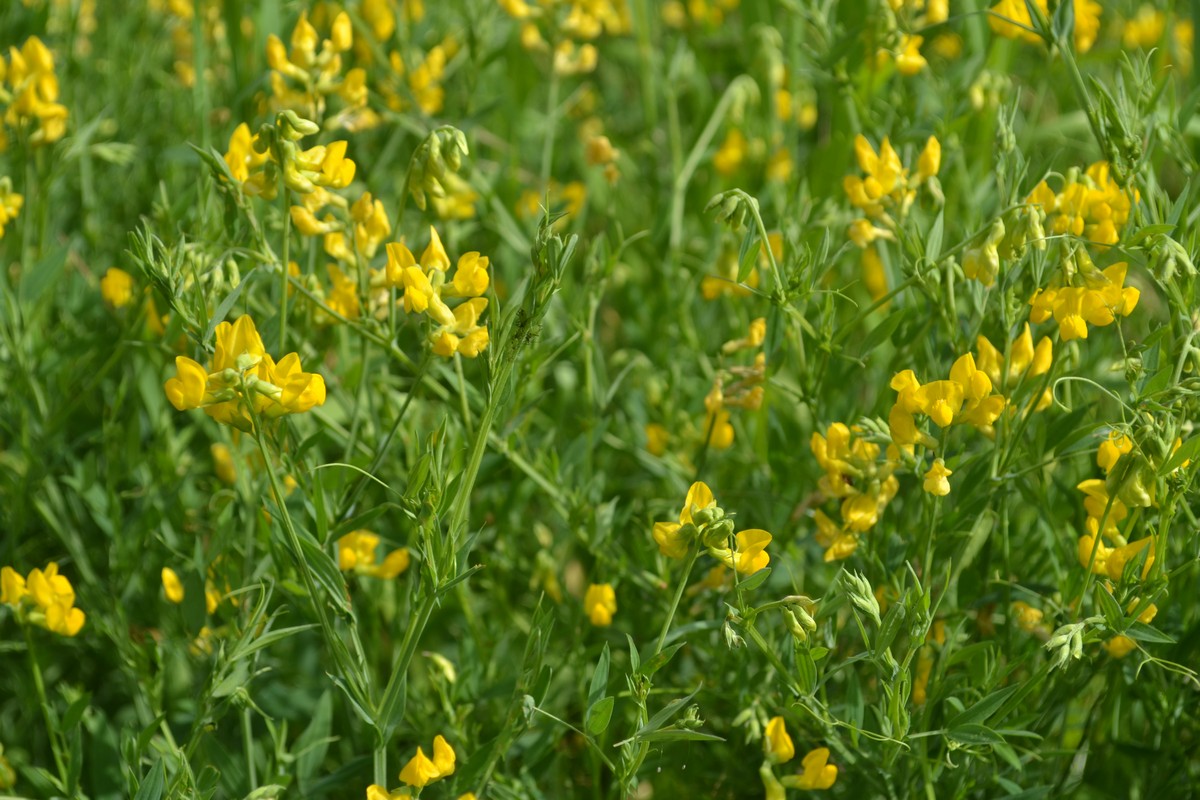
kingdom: Plantae
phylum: Tracheophyta
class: Magnoliopsida
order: Fabales
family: Fabaceae
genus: Lotus
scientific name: Lotus corniculatus
